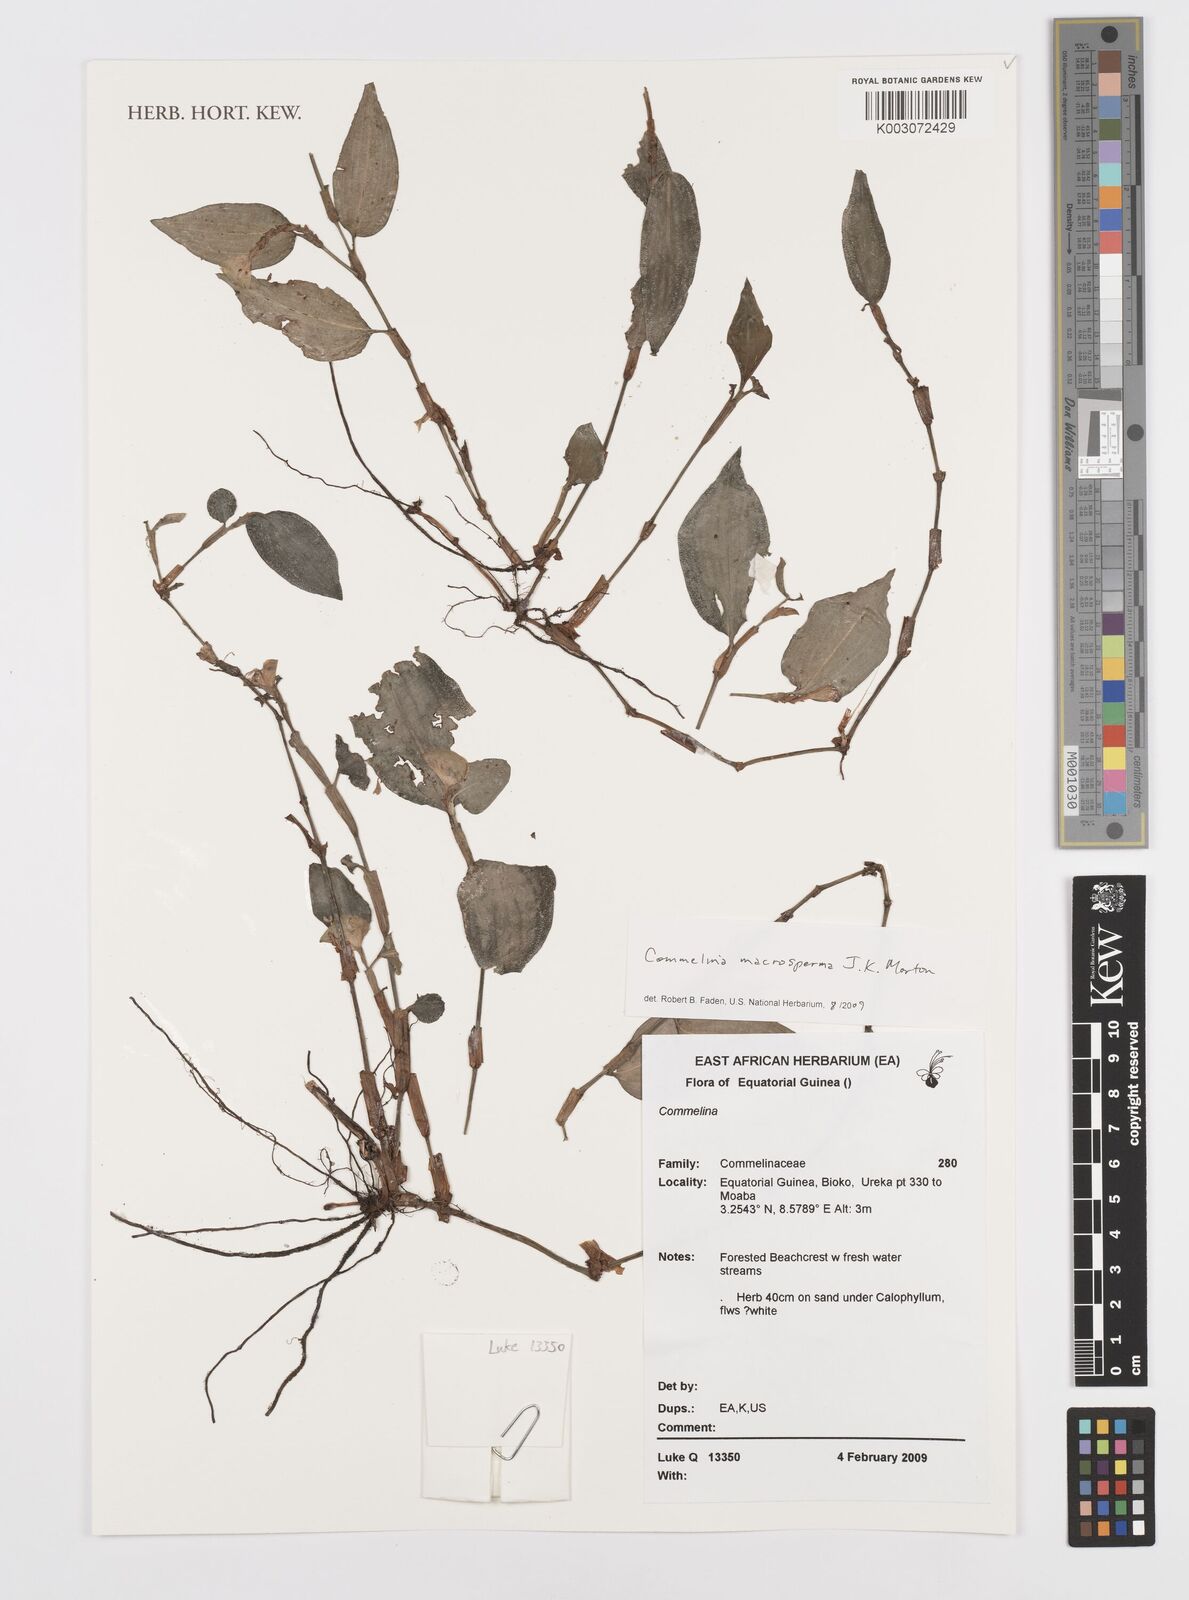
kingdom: Plantae
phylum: Tracheophyta
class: Liliopsida
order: Commelinales
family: Commelinaceae
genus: Commelina
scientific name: Commelina macrosperma
